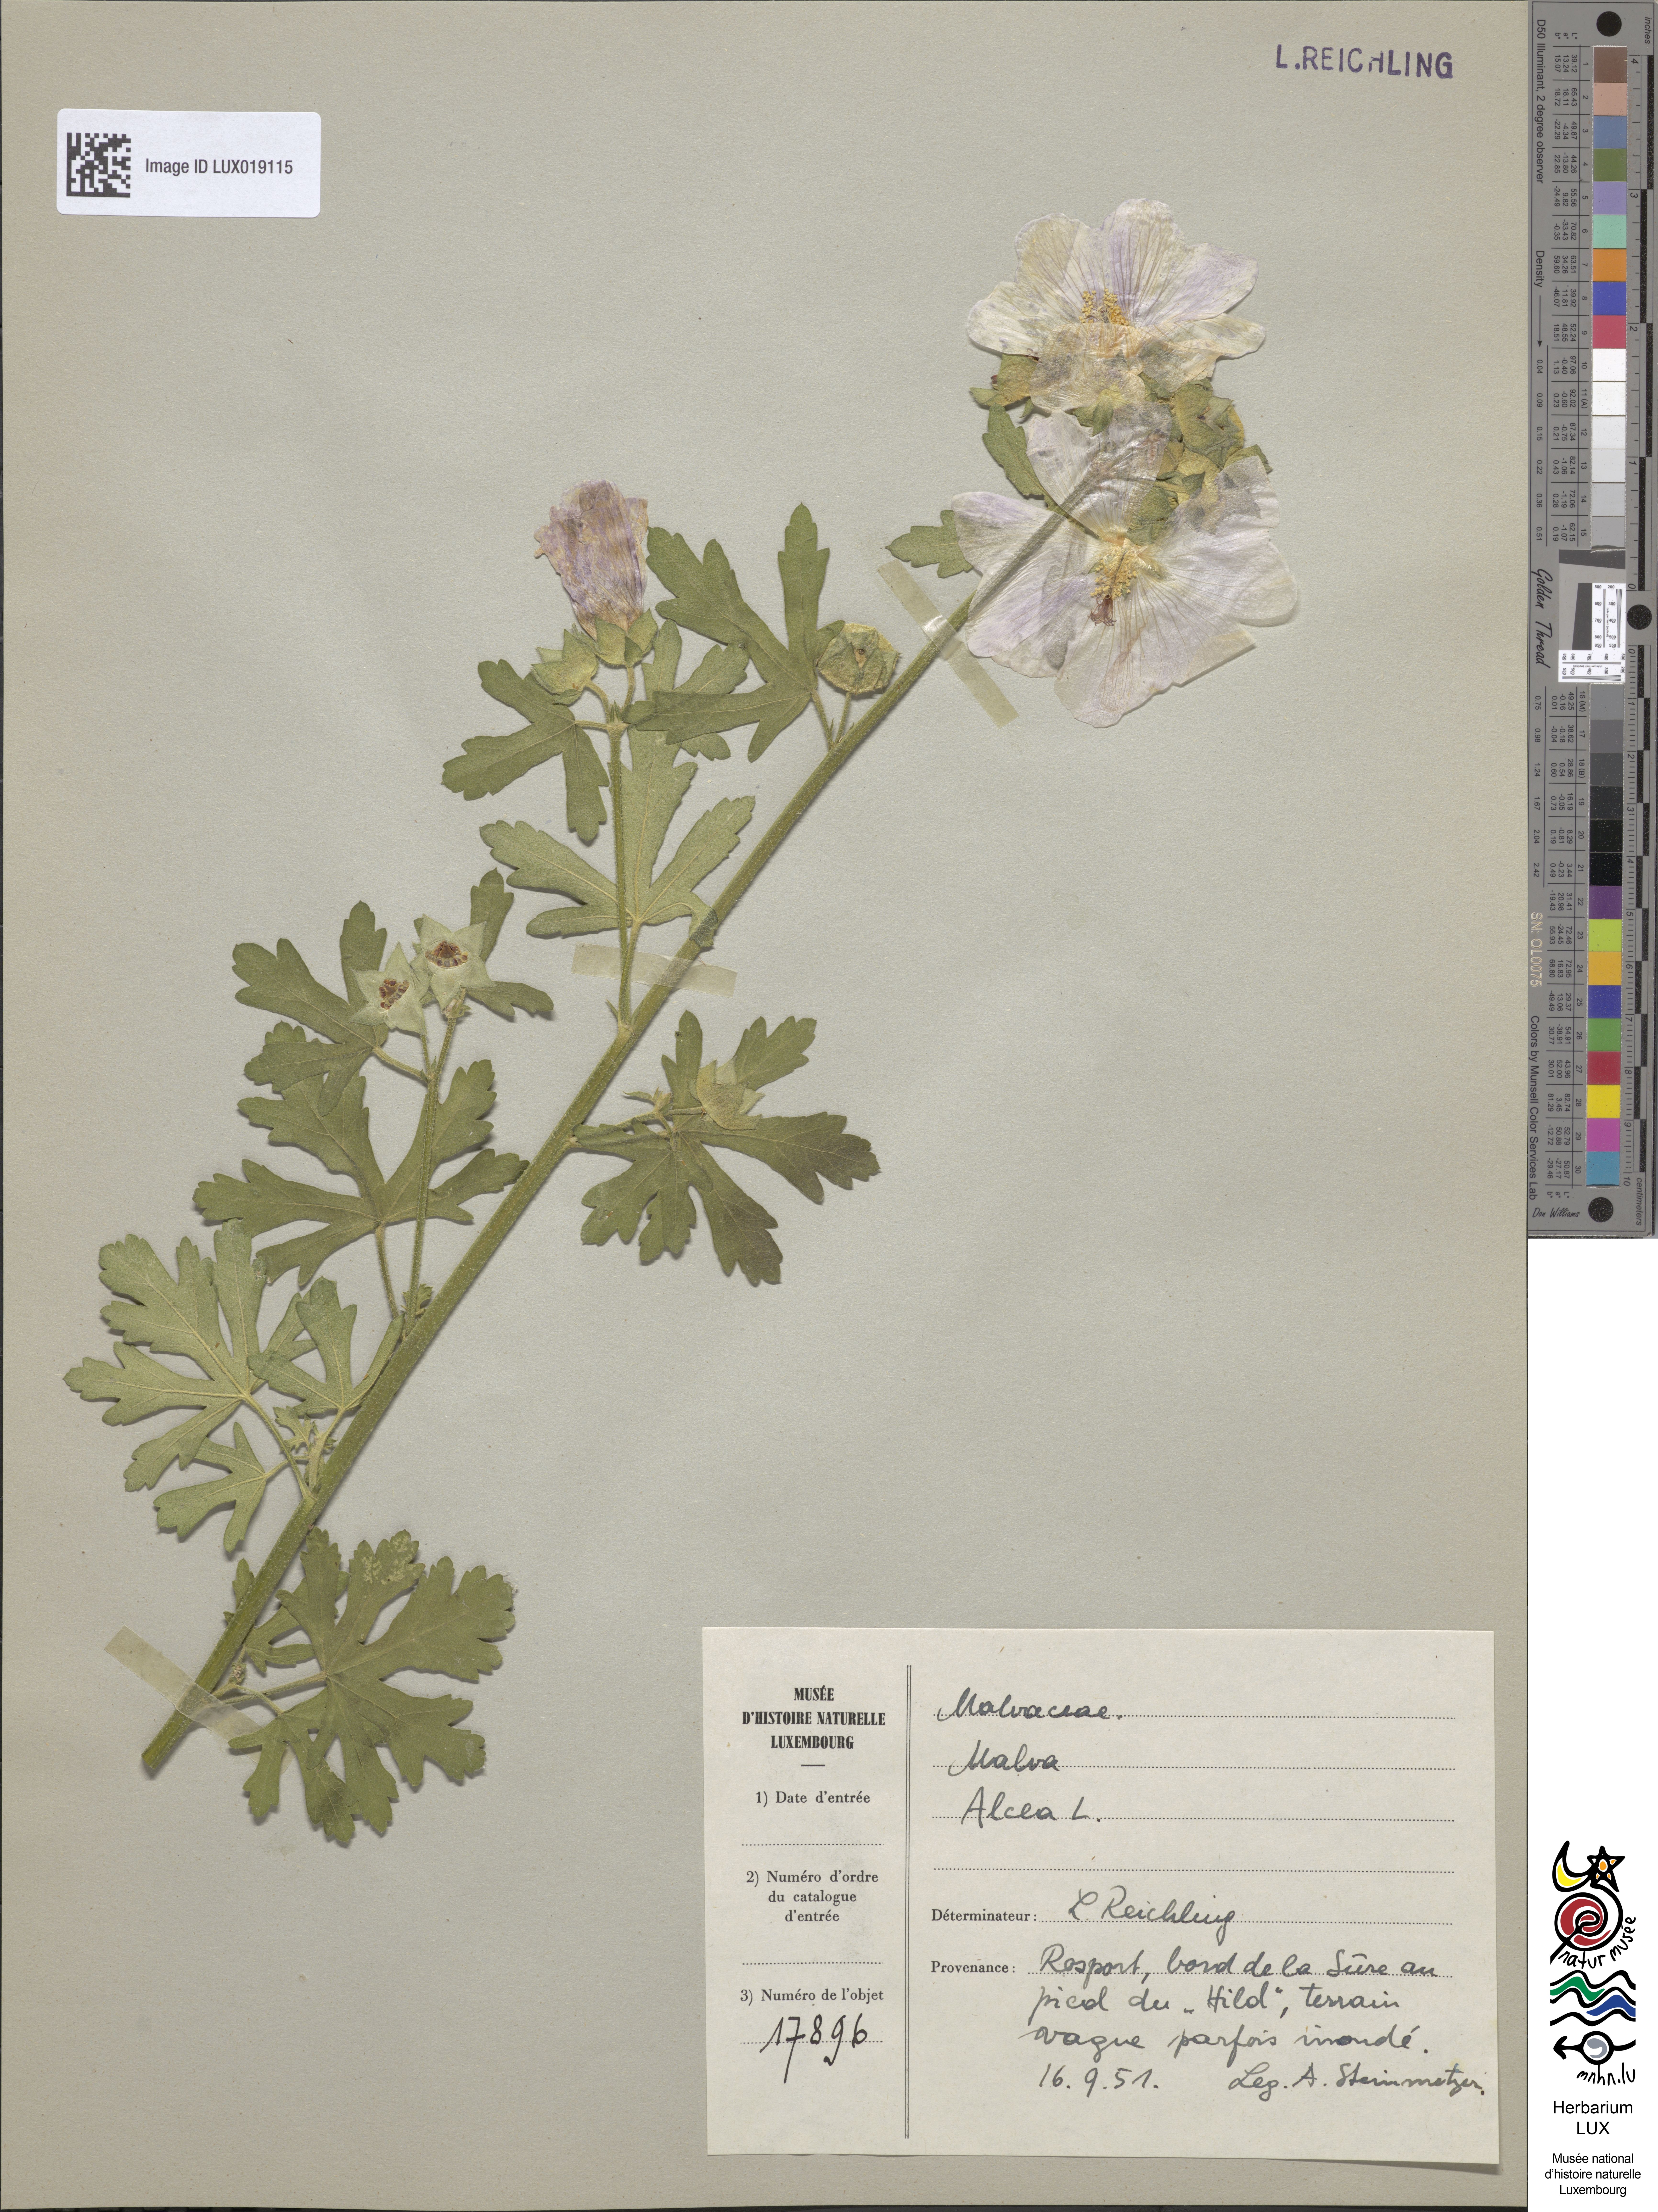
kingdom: Plantae
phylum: Tracheophyta
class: Magnoliopsida
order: Malvales
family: Malvaceae
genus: Malva
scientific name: Malva alcea
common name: Greater musk-mallow
